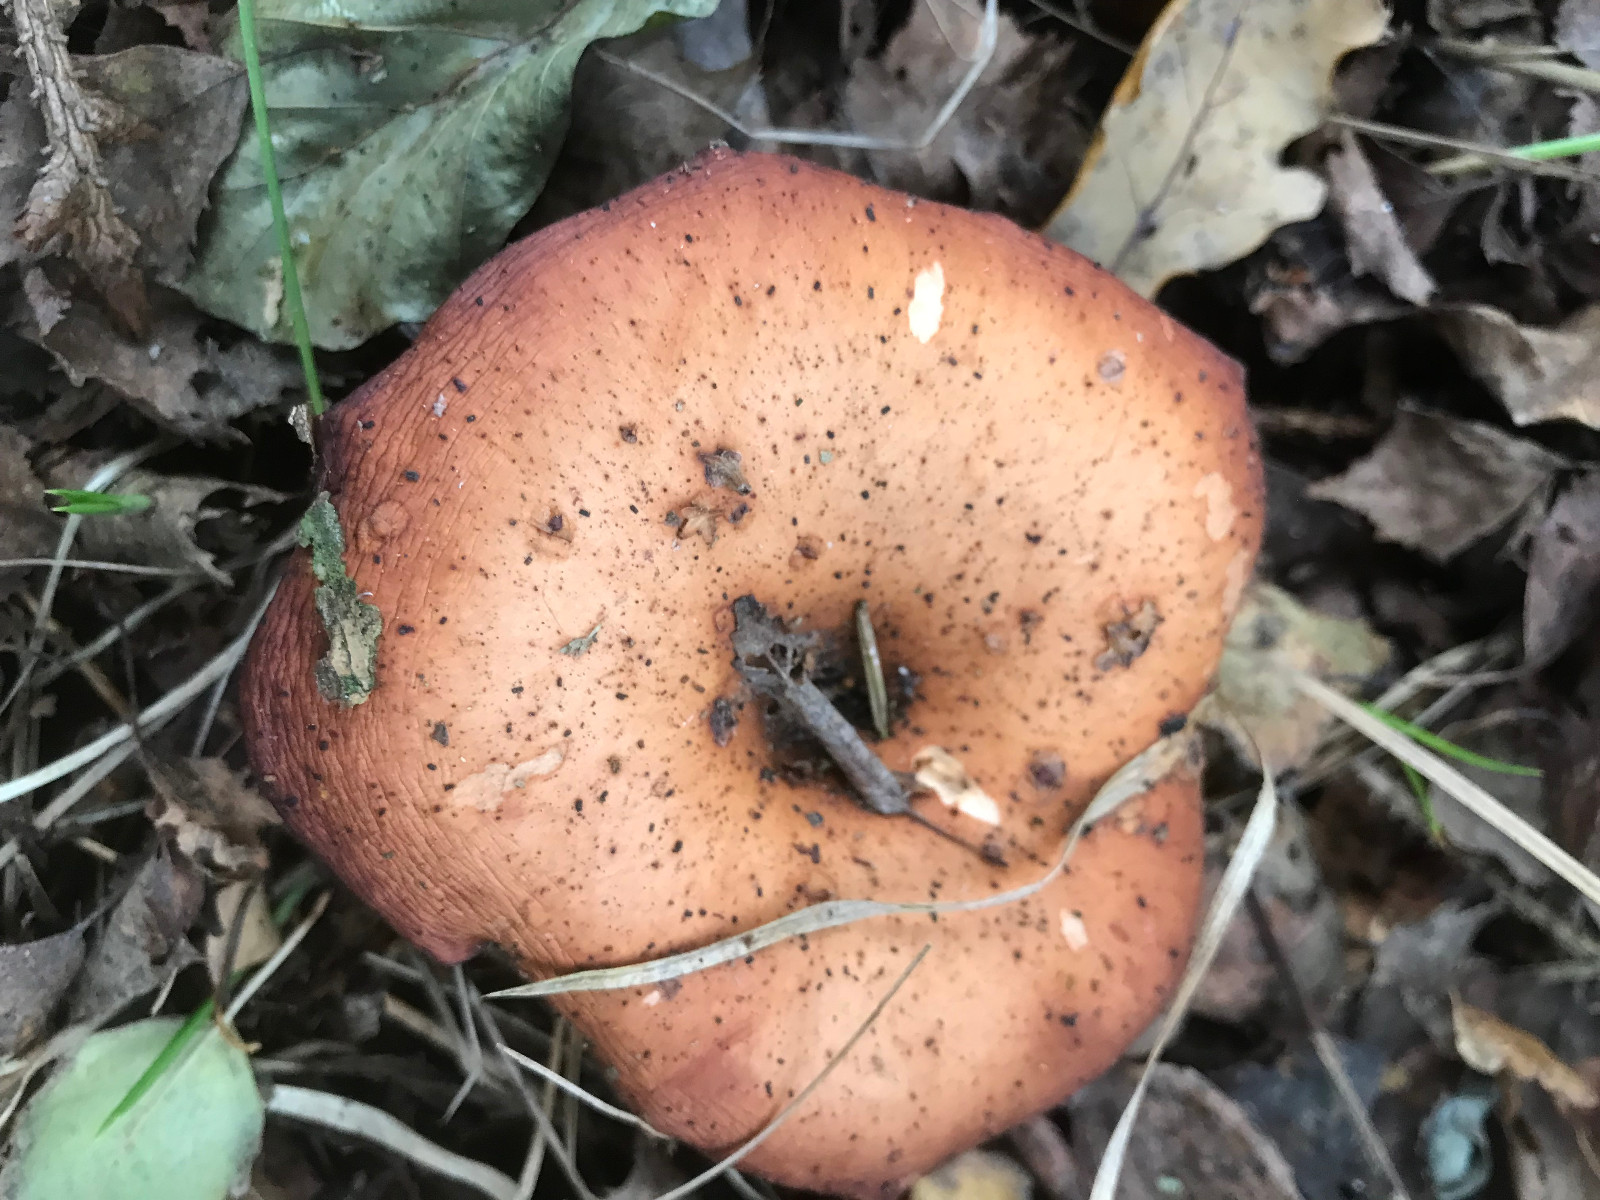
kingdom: Fungi
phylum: Basidiomycota
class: Agaricomycetes
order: Agaricales
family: Tricholomataceae
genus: Paralepista
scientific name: Paralepista flaccida
